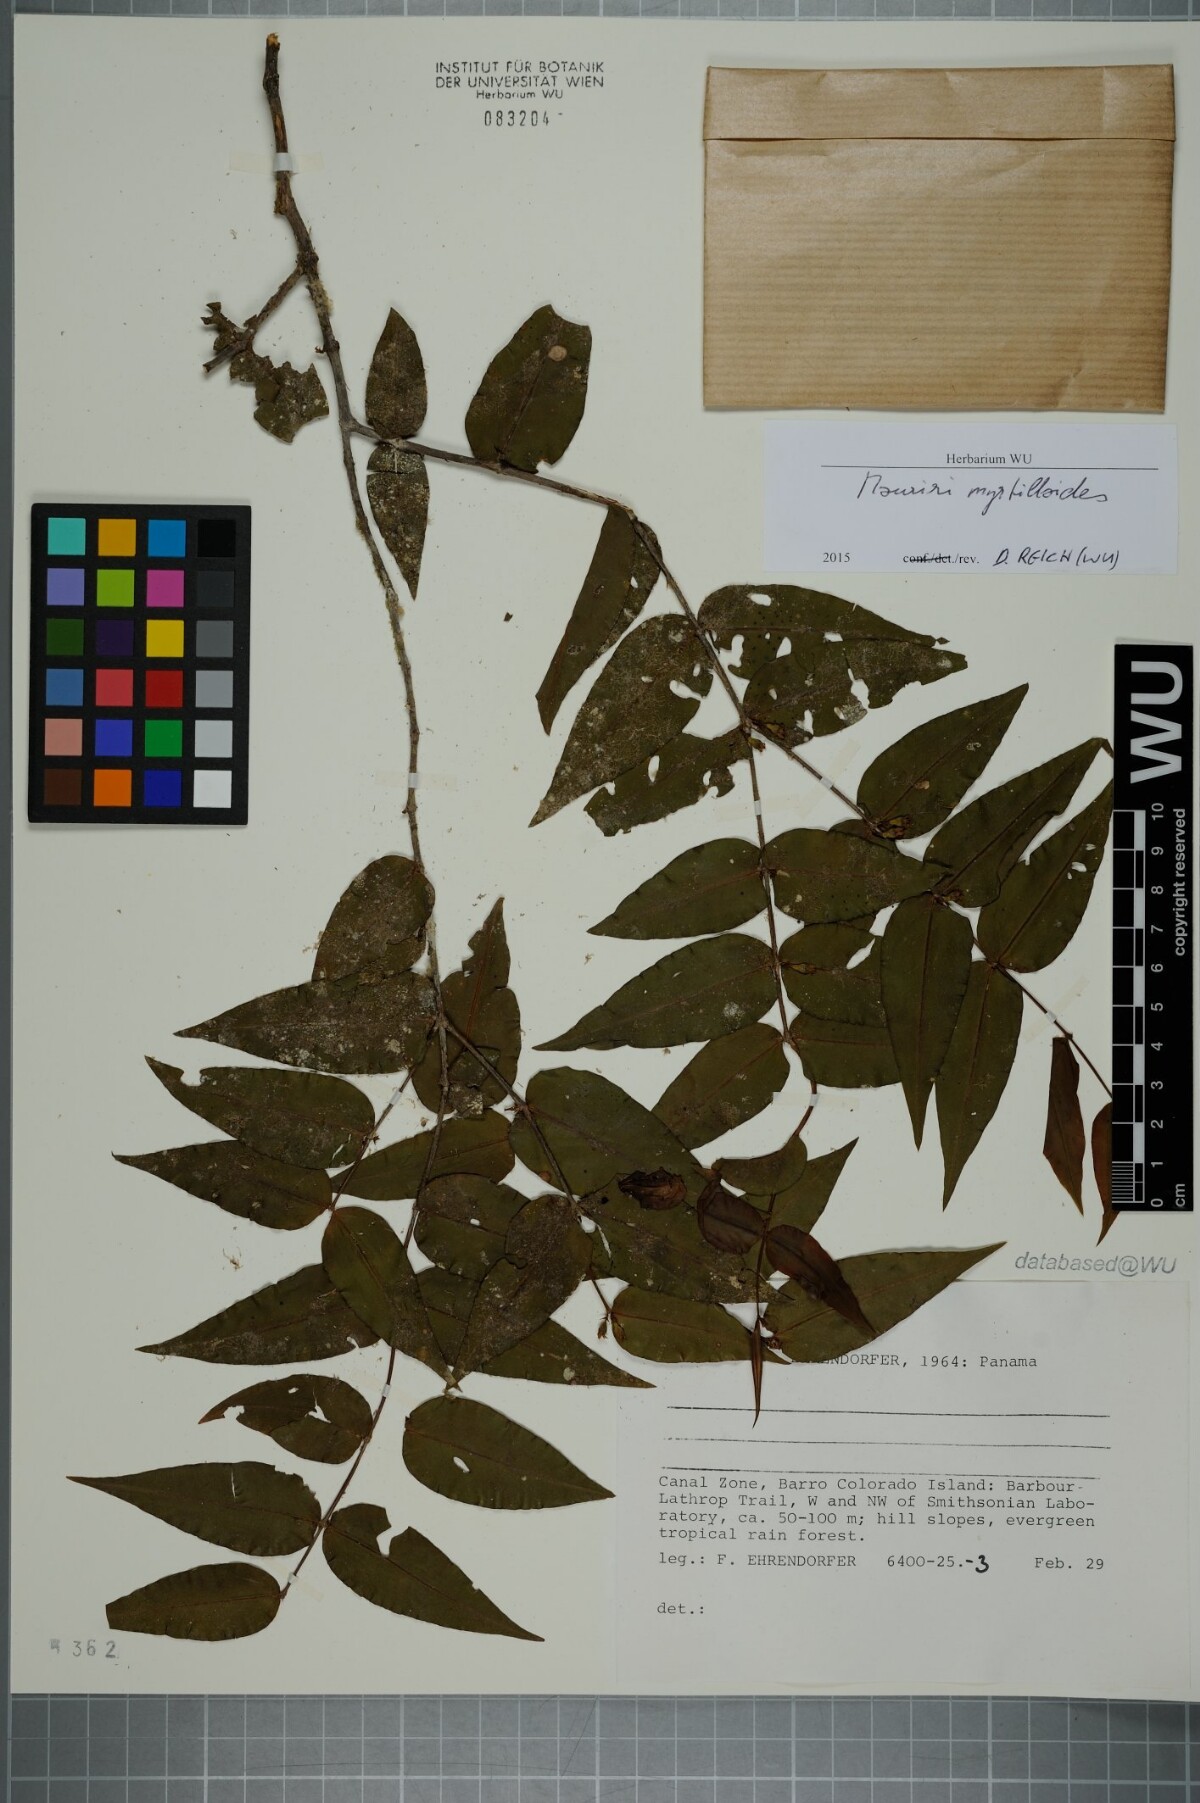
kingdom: Plantae
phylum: Tracheophyta
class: Magnoliopsida
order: Myrtales
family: Melastomataceae
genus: Mouriri
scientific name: Mouriri myrtilloides
